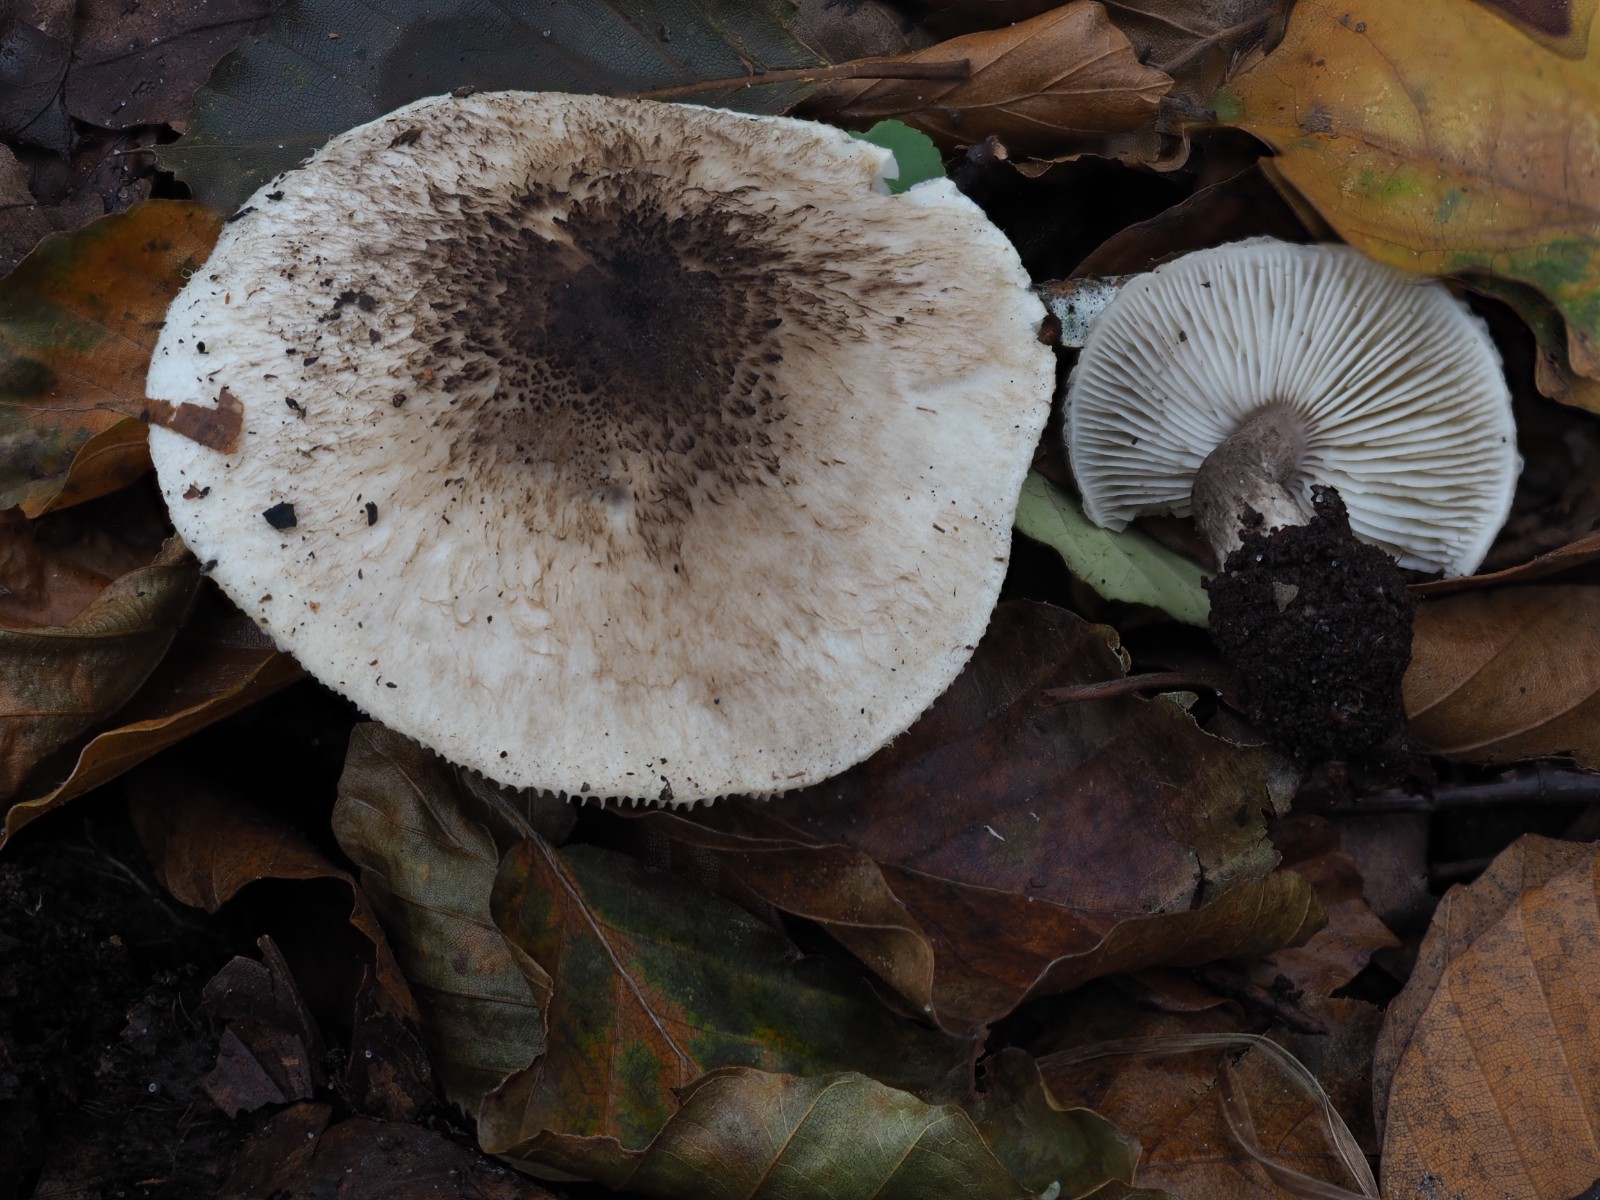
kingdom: Fungi
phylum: Basidiomycota
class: Agaricomycetes
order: Agaricales
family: Tricholomataceae
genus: Tricholoma
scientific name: Tricholoma atrosquamosum
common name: sortskællet ridderhat
